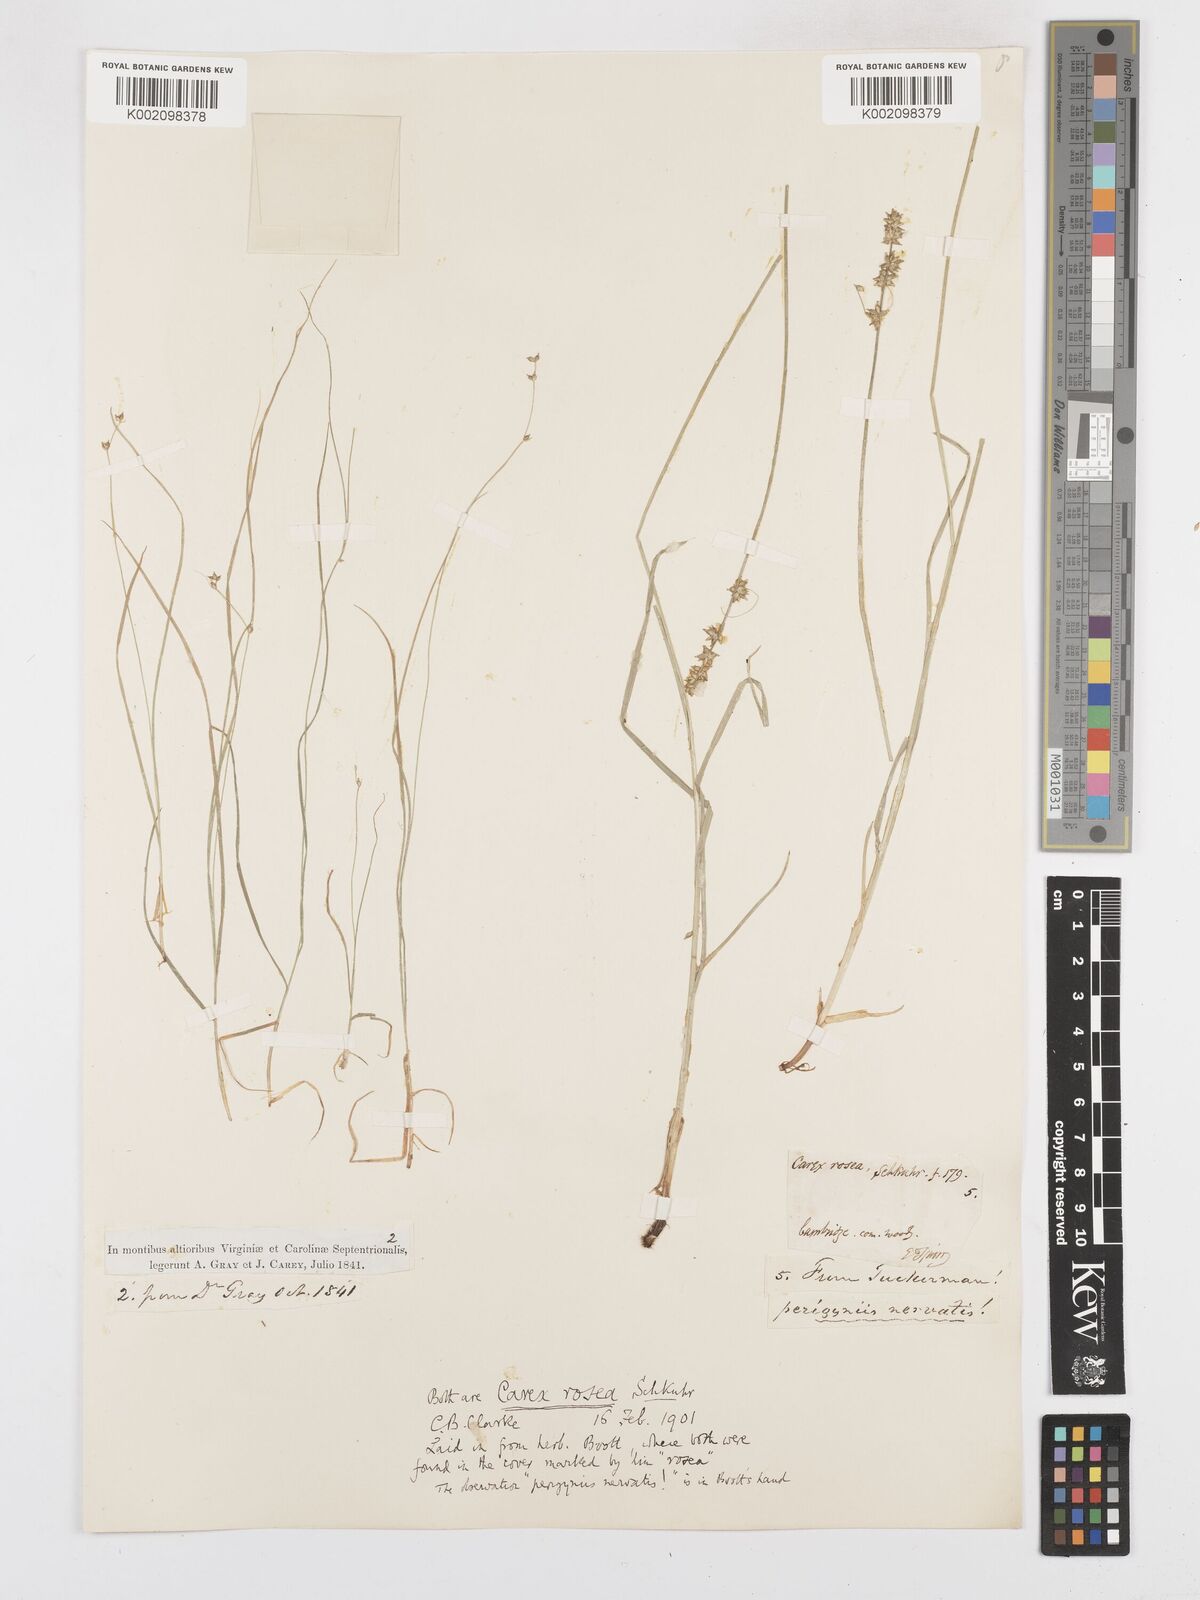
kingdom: Plantae
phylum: Tracheophyta
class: Liliopsida
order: Poales
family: Cyperaceae
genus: Carex
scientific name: Carex rosea
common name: Curly-styled wood sedge
